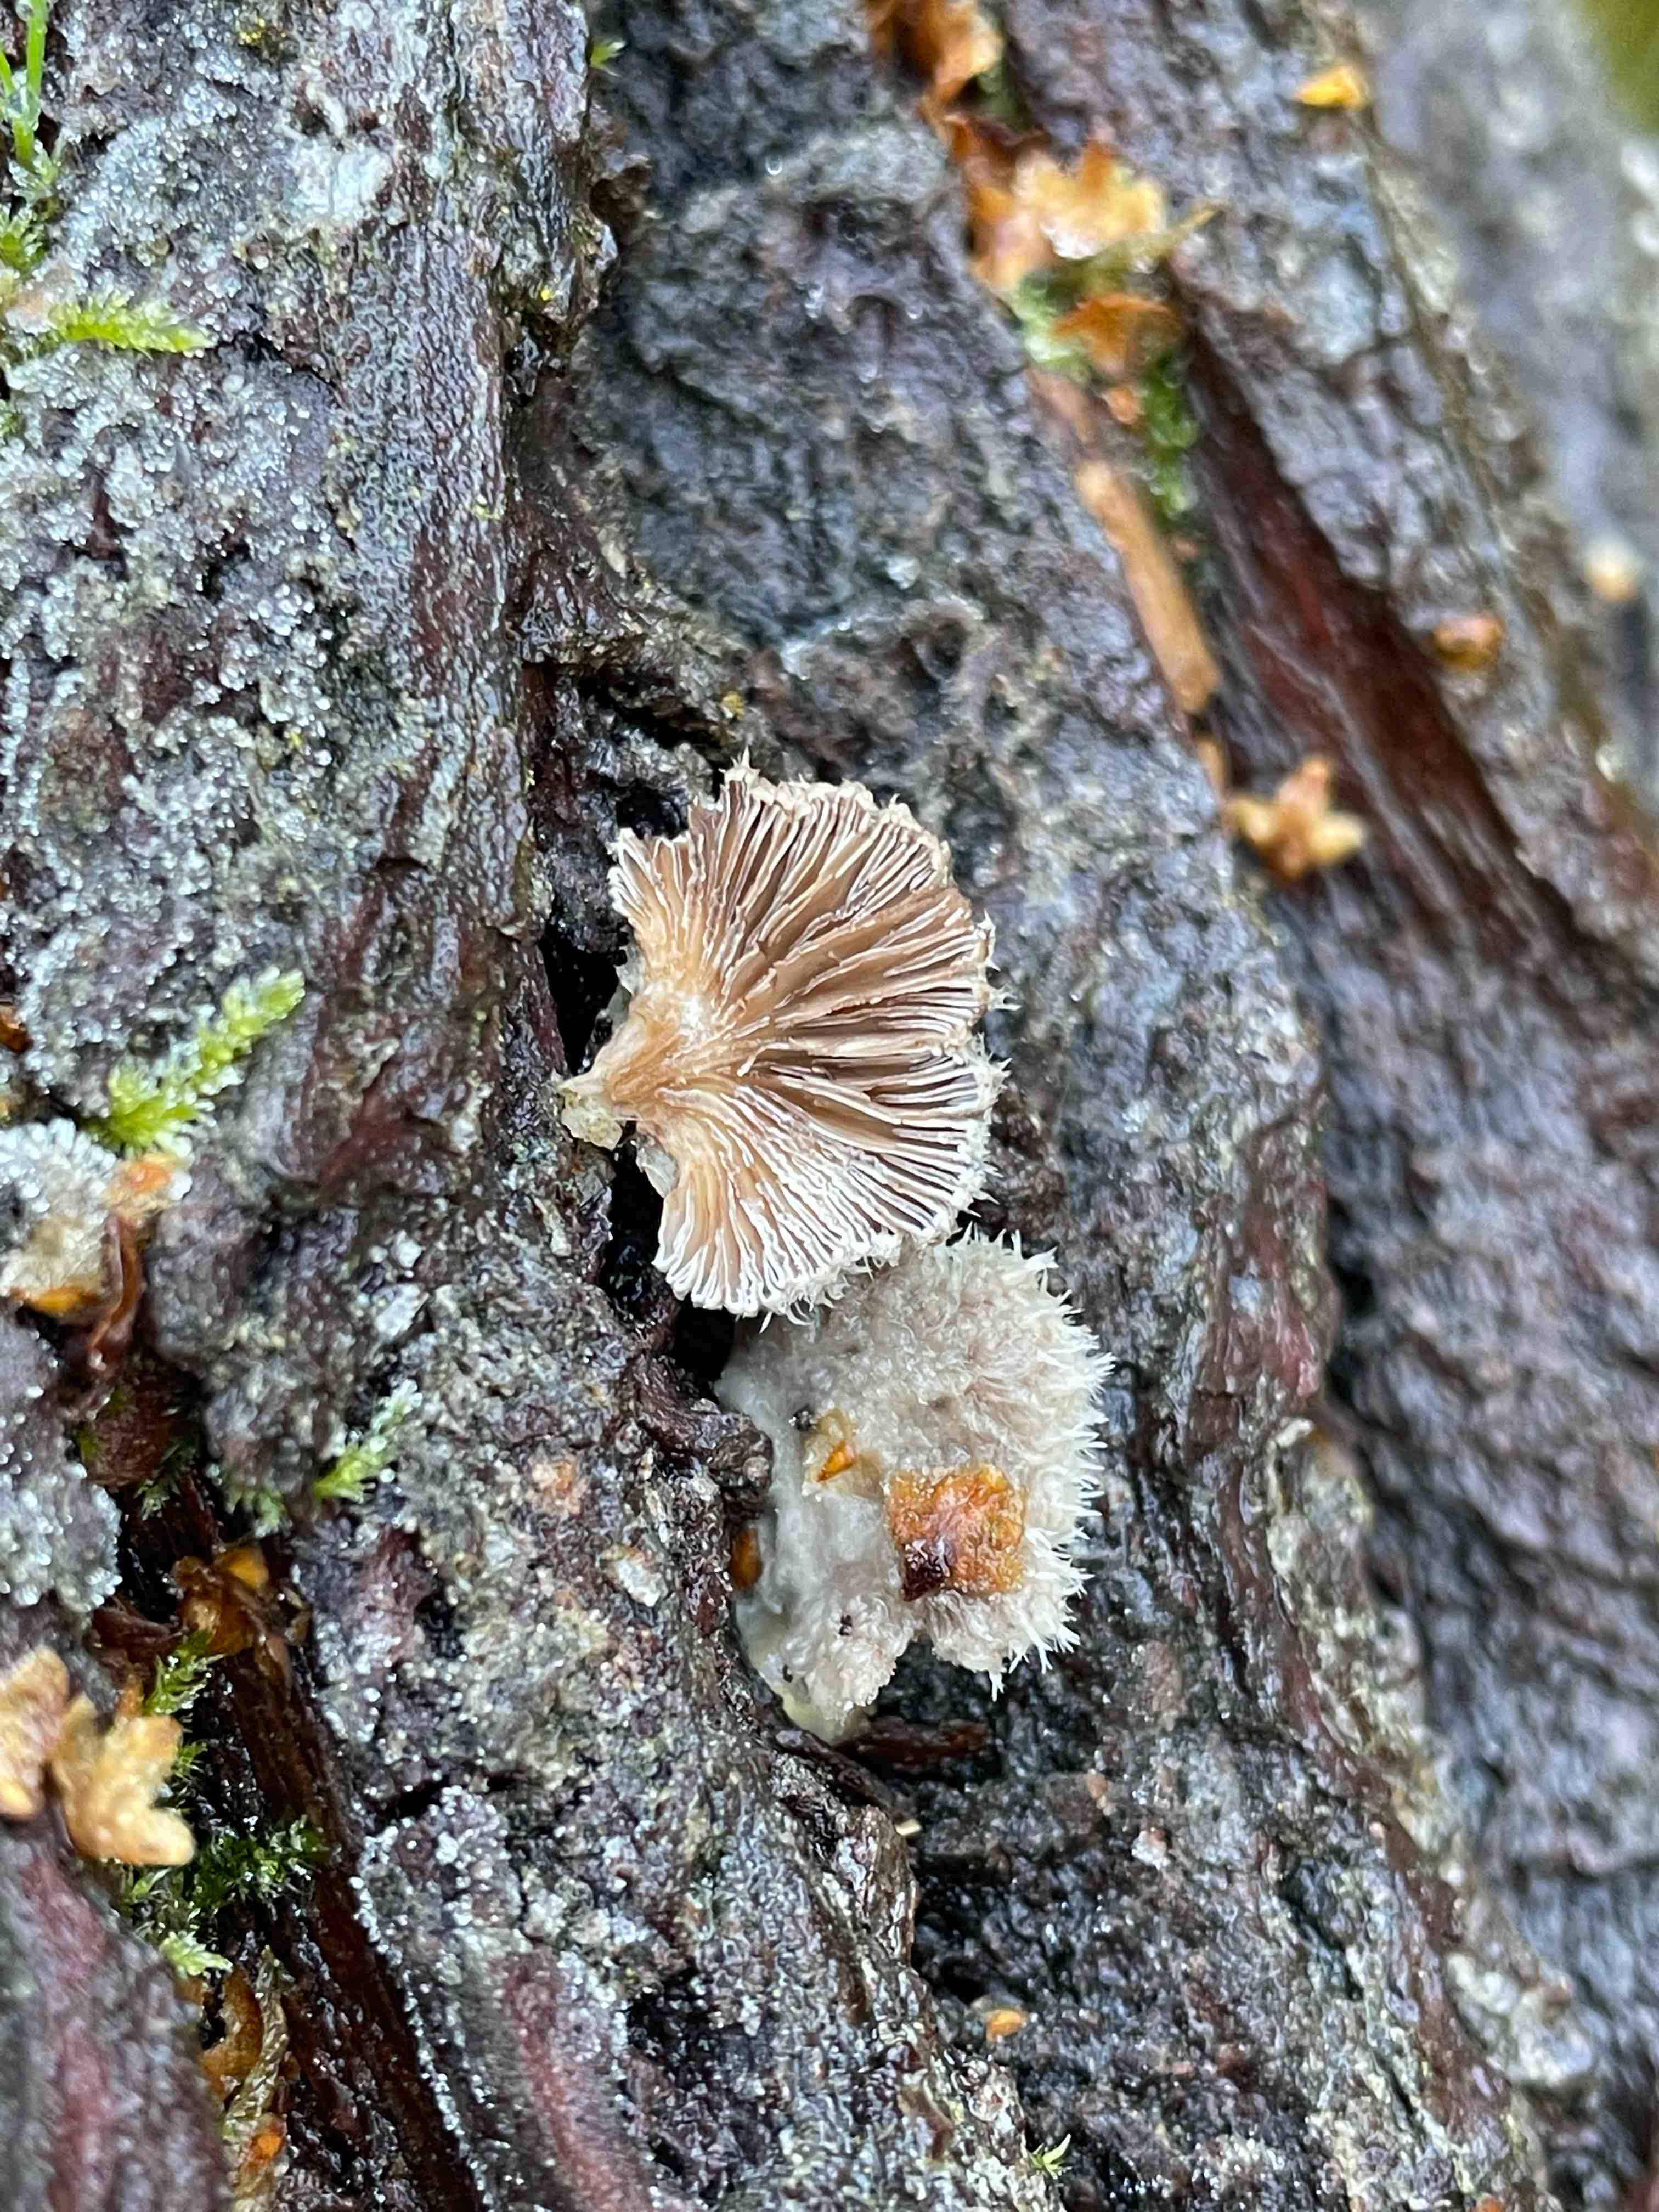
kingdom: Fungi
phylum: Basidiomycota
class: Agaricomycetes
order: Agaricales
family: Schizophyllaceae
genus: Schizophyllum
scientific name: Schizophyllum commune
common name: kløvblad
